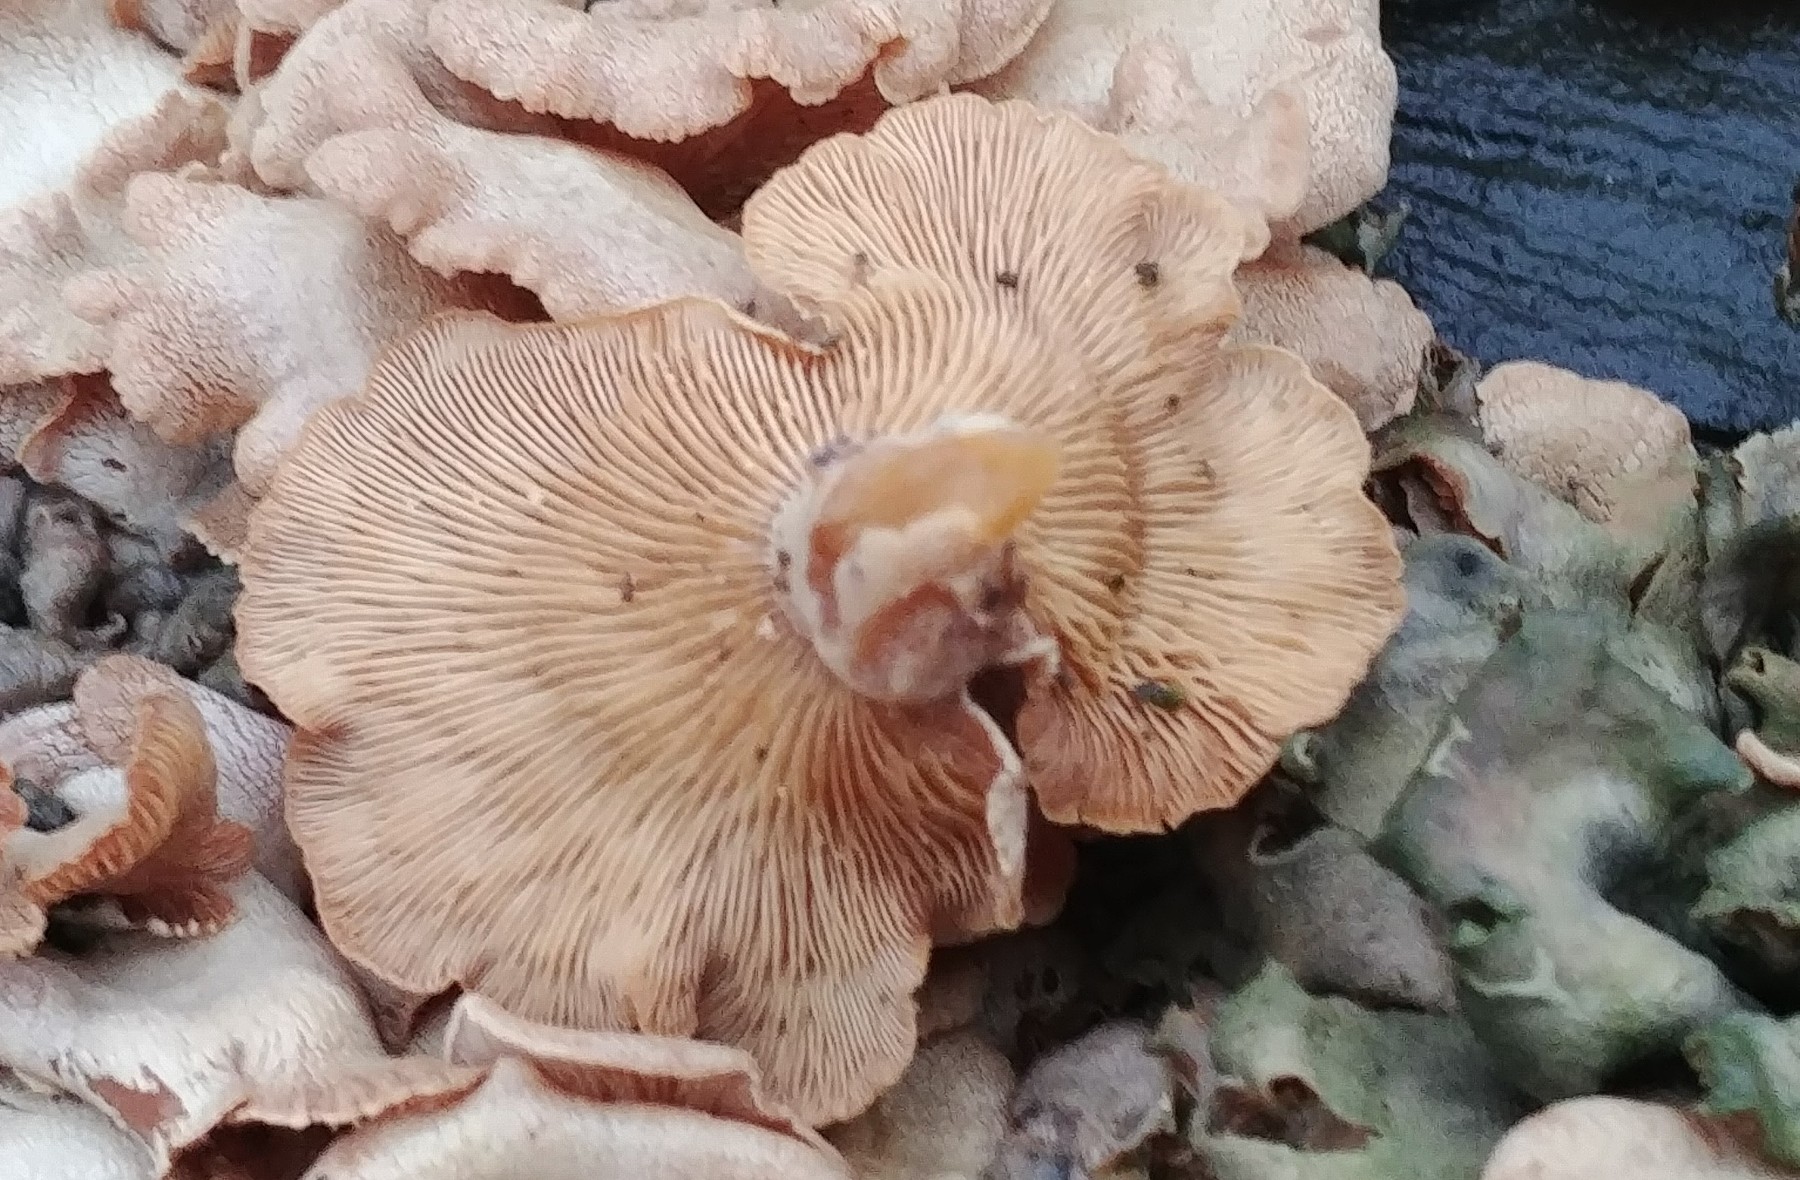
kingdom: Fungi
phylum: Basidiomycota
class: Agaricomycetes
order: Agaricales
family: Mycenaceae
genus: Panellus
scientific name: Panellus stipticus
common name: kliddet epaulethat
